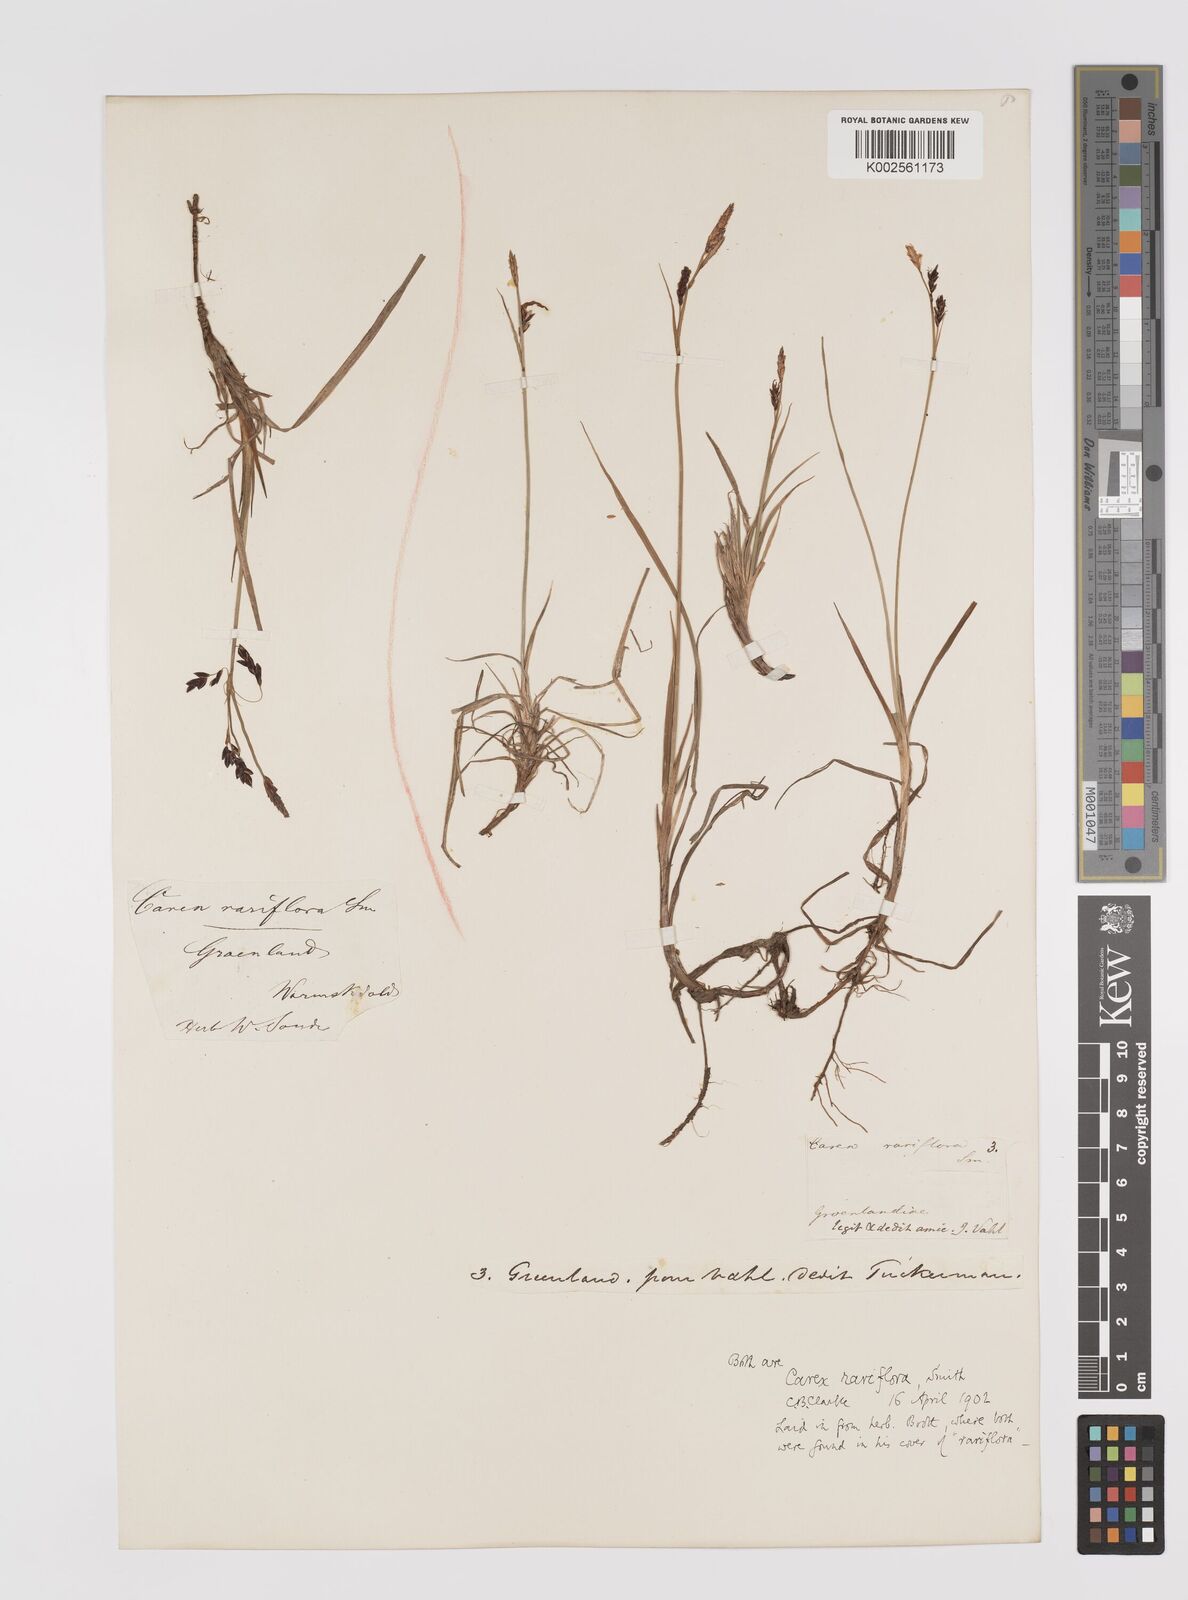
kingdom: Plantae
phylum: Tracheophyta
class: Liliopsida
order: Poales
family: Cyperaceae
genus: Carex
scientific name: Carex rariflora
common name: Loose-flowered alpine sedge
